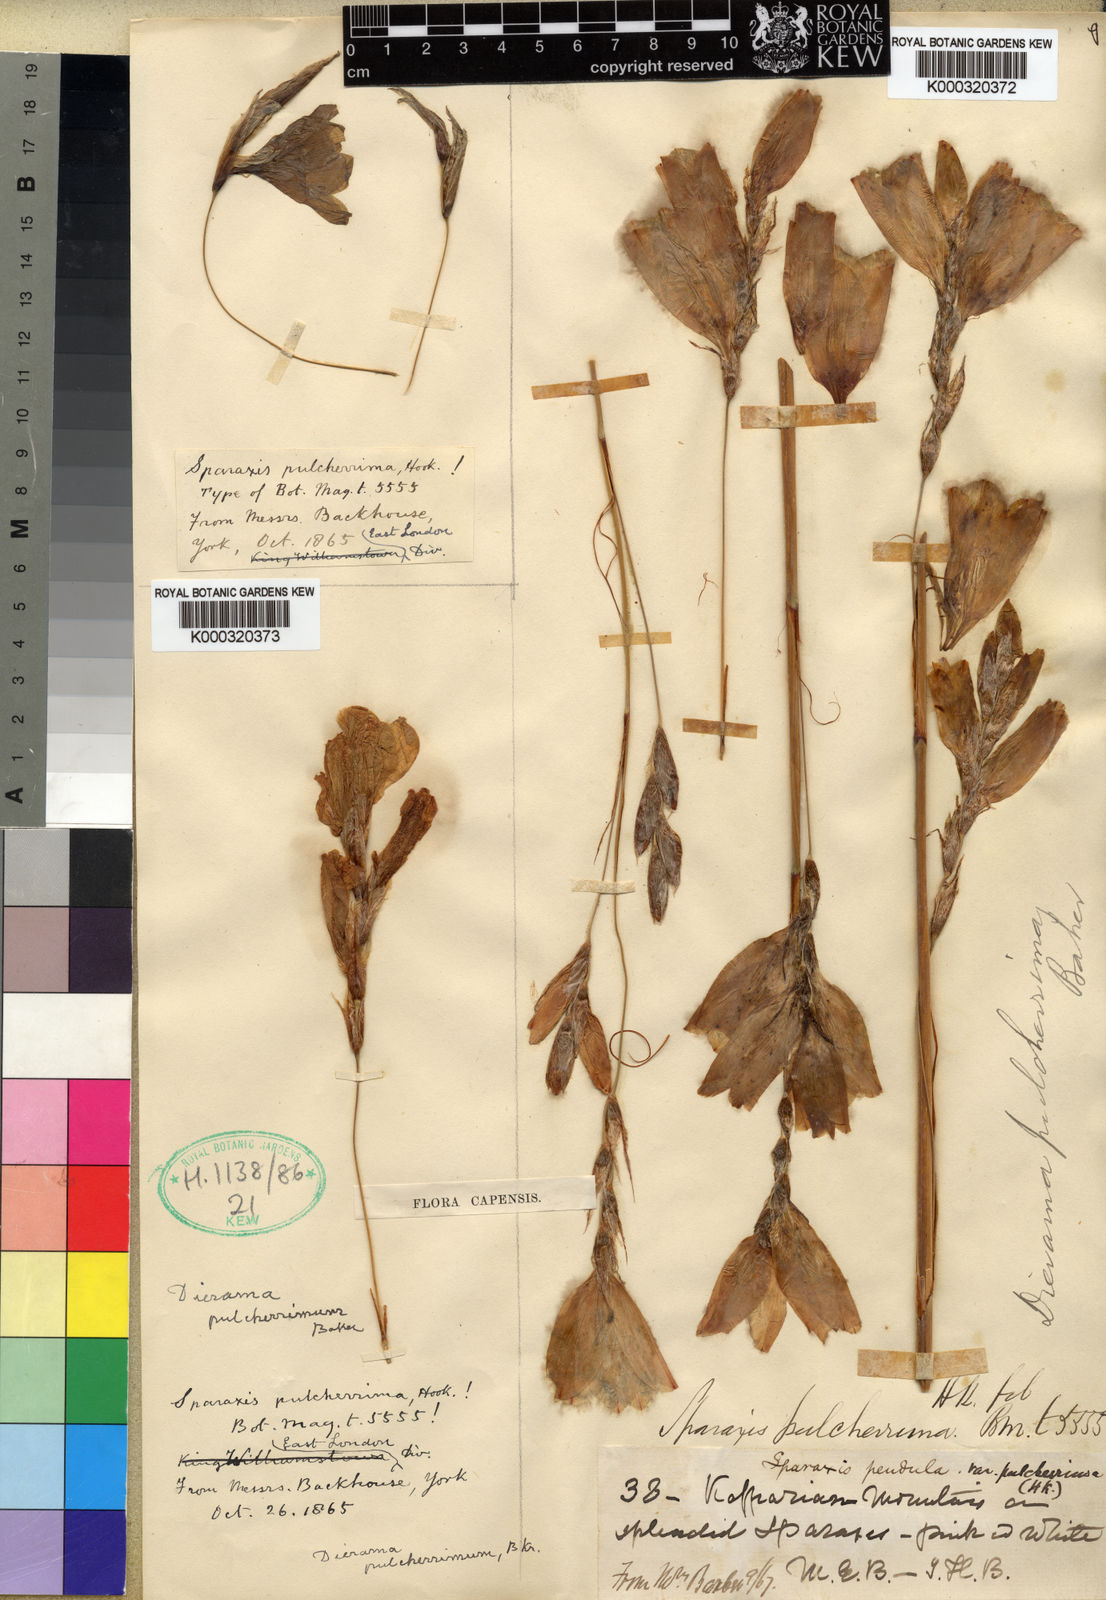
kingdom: Plantae
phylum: Tracheophyta
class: Liliopsida
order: Asparagales
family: Iridaceae
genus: Dierama
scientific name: Dierama pulcherrimum
